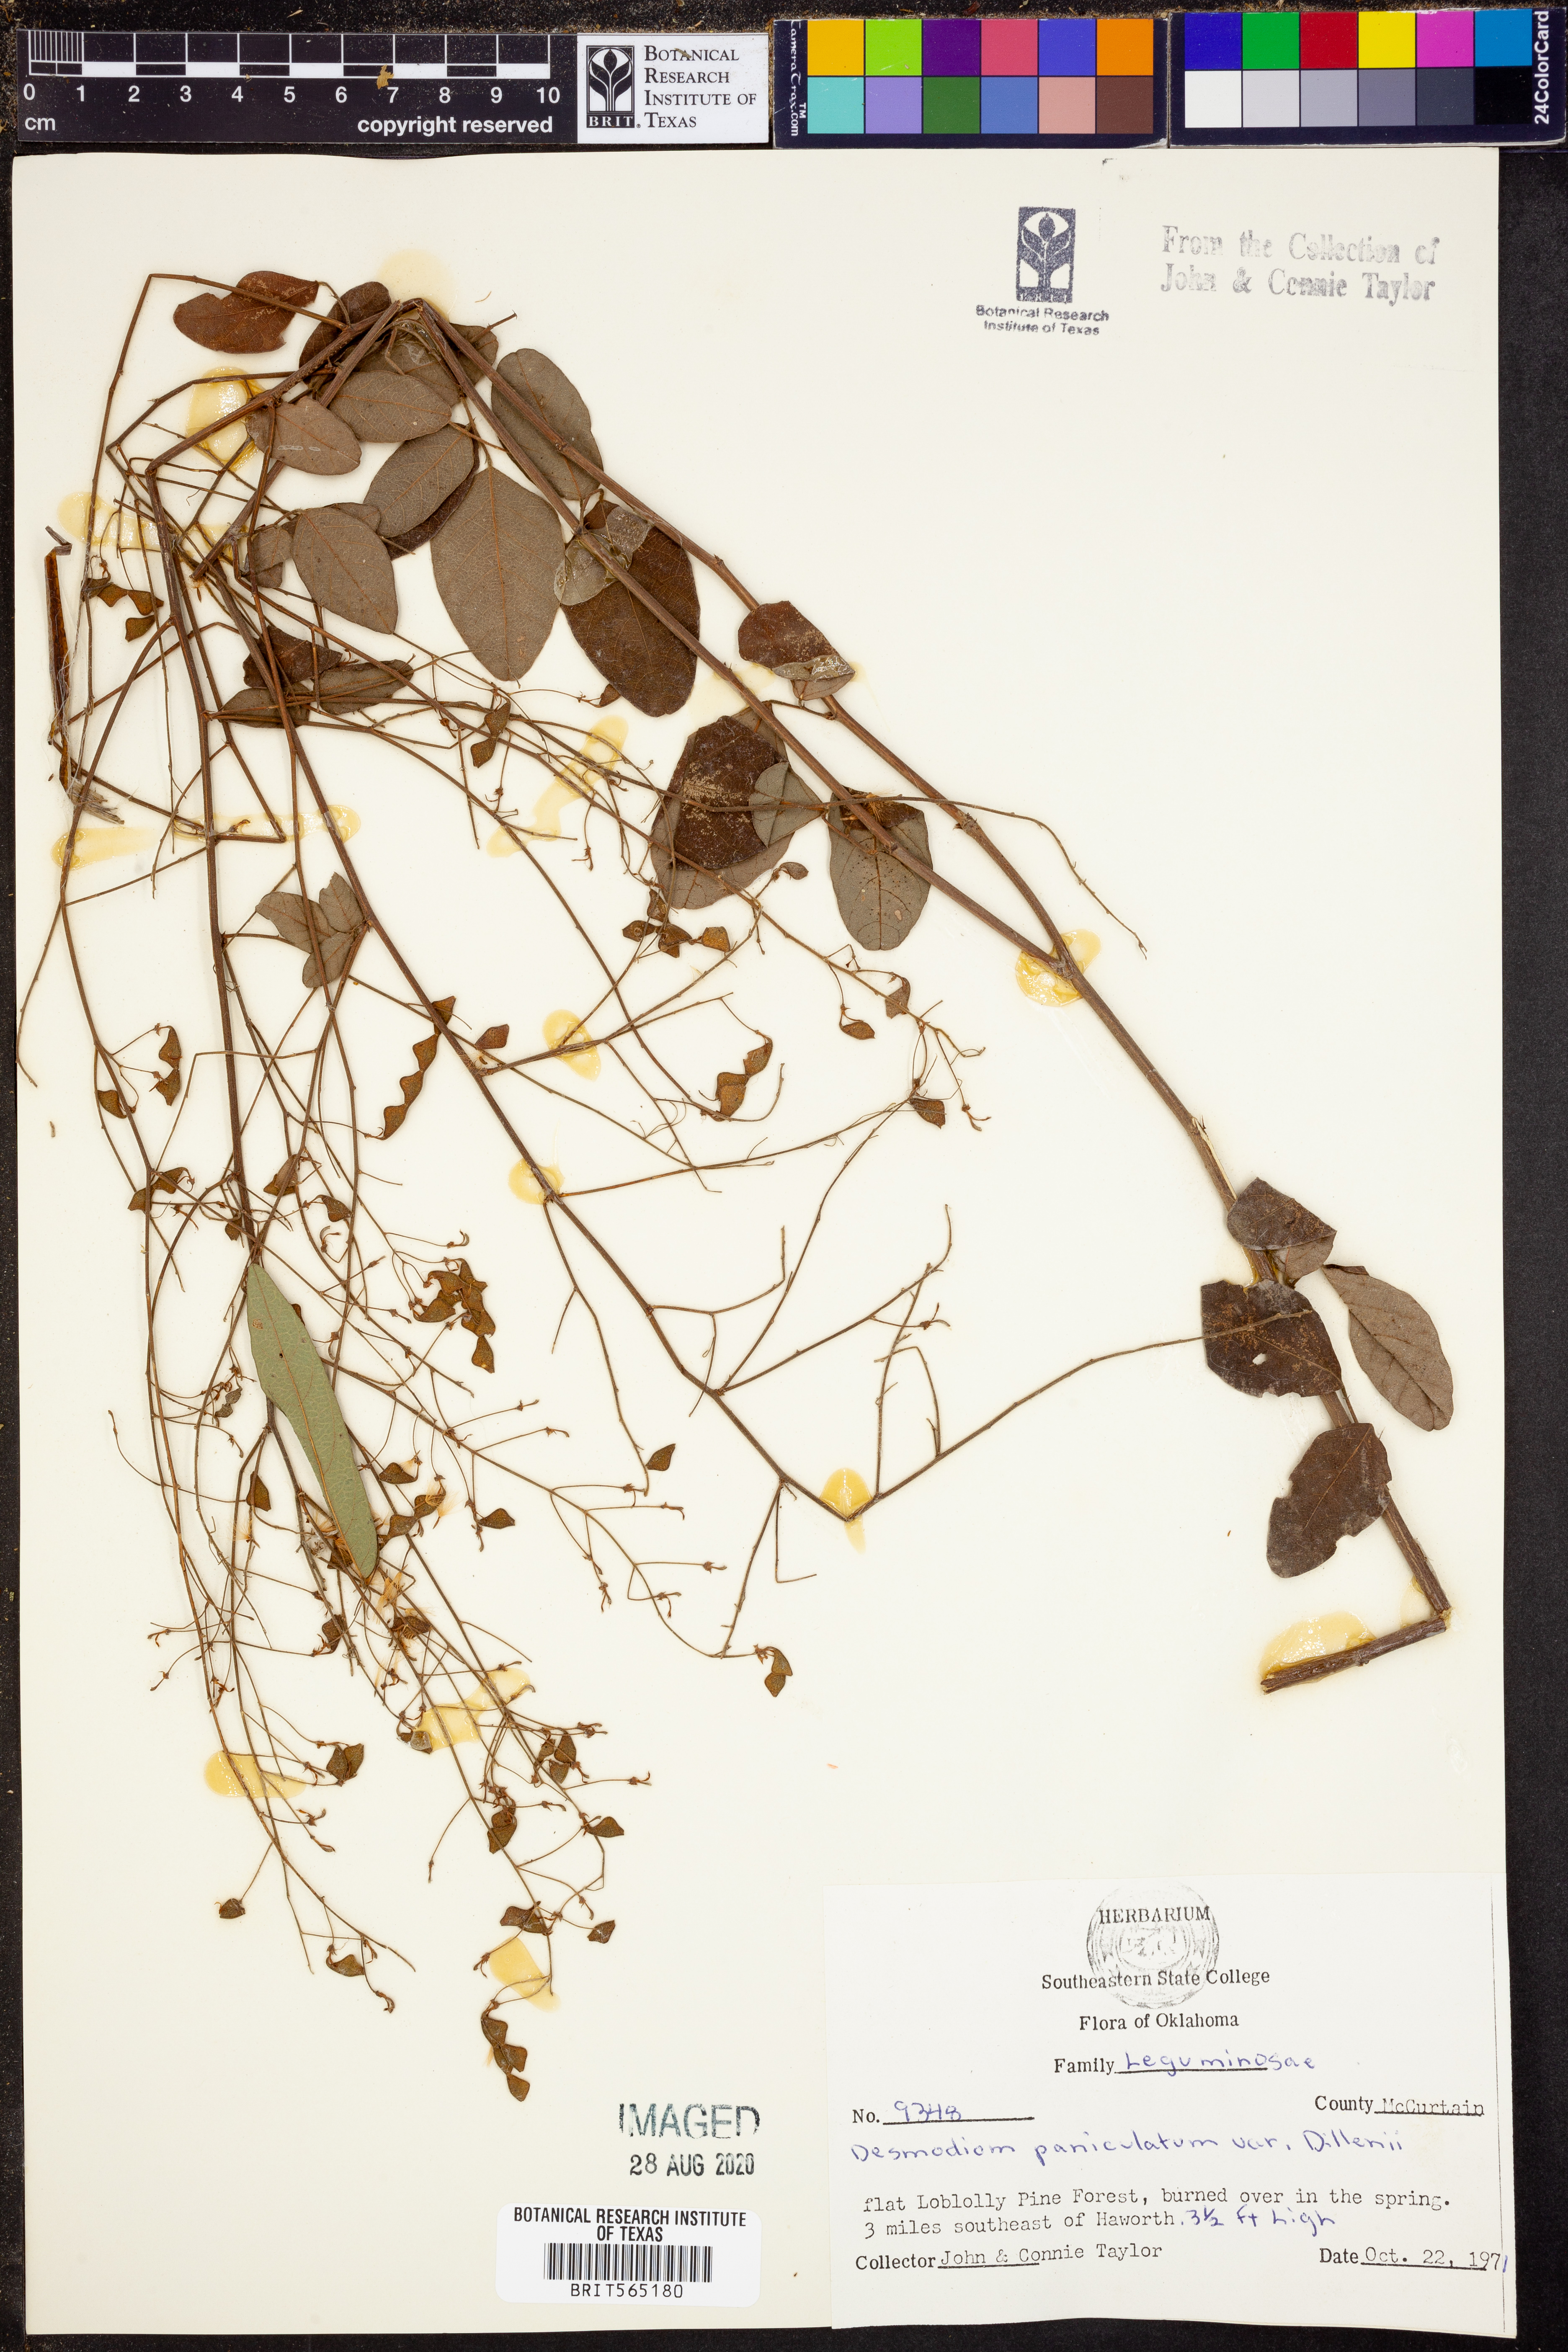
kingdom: Plantae
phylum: Tracheophyta
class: Magnoliopsida
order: Fabales
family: Fabaceae
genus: Desmodium
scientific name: Desmodium perplexum
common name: Perplexed tick trefoil
